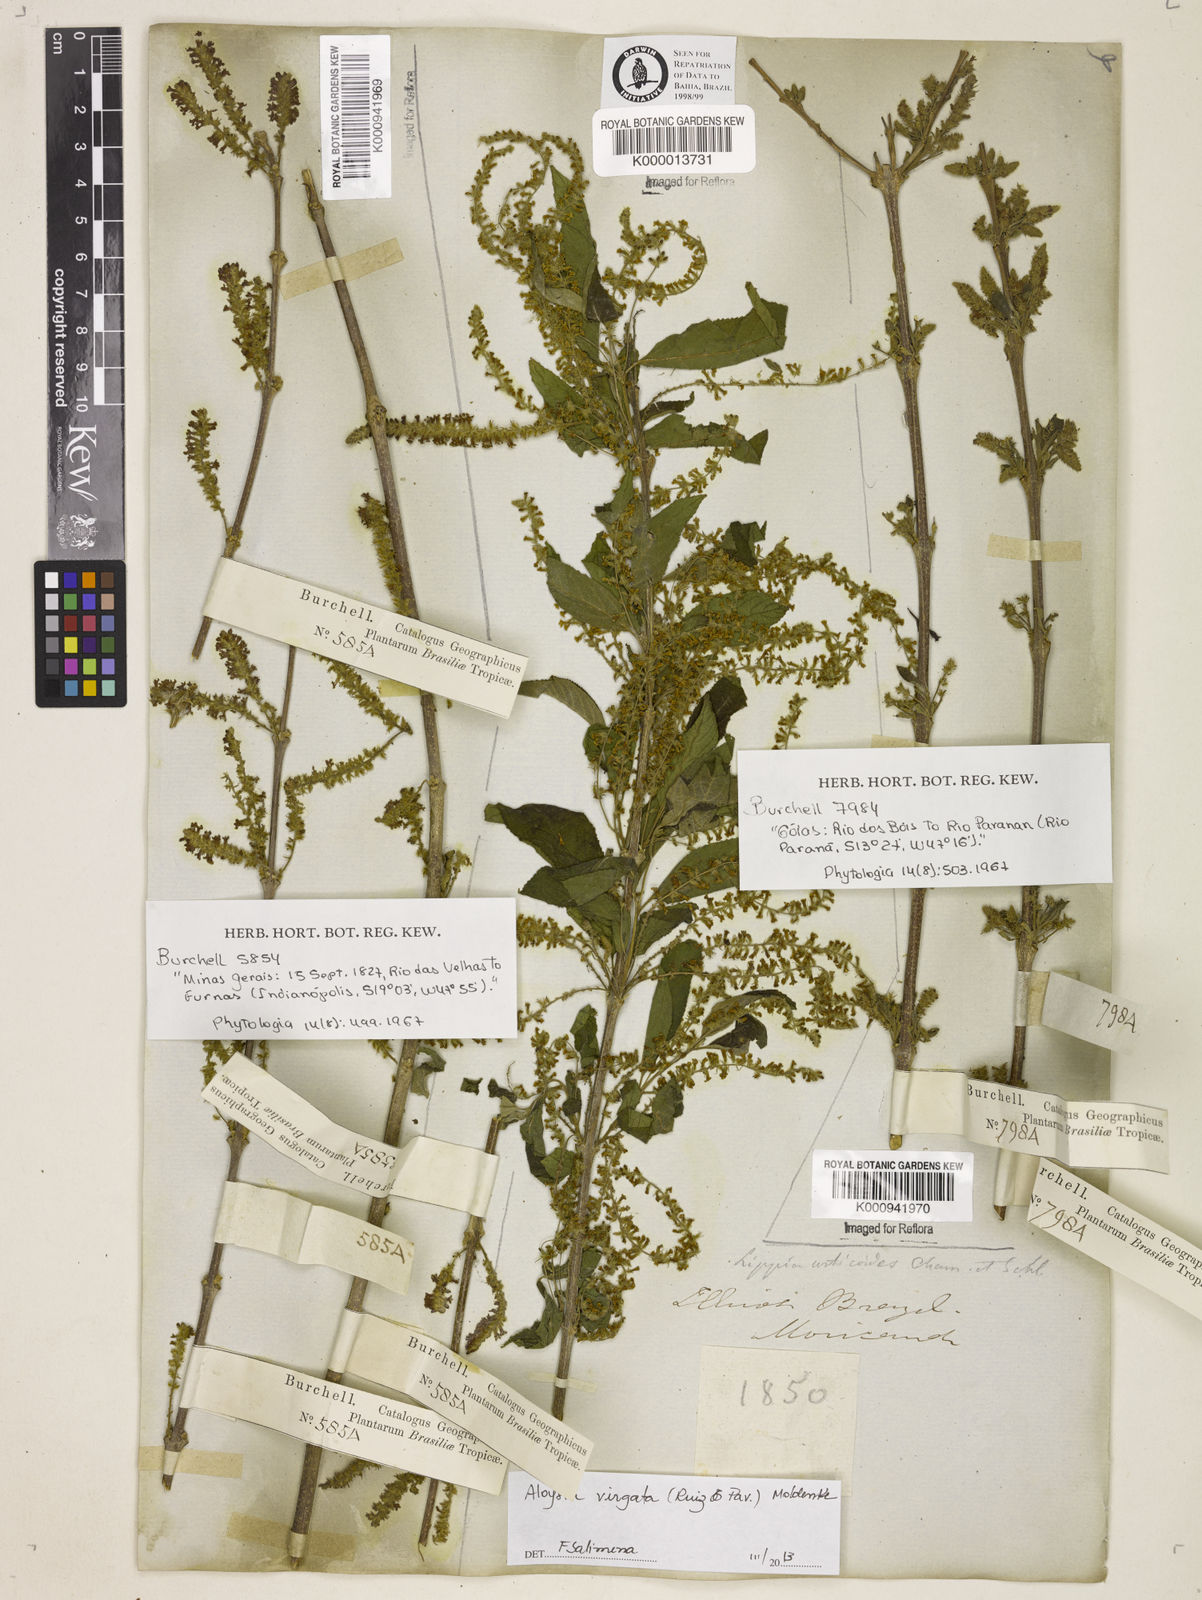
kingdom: Plantae
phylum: Tracheophyta
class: Magnoliopsida
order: Lamiales
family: Verbenaceae
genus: Aloysia
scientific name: Aloysia
